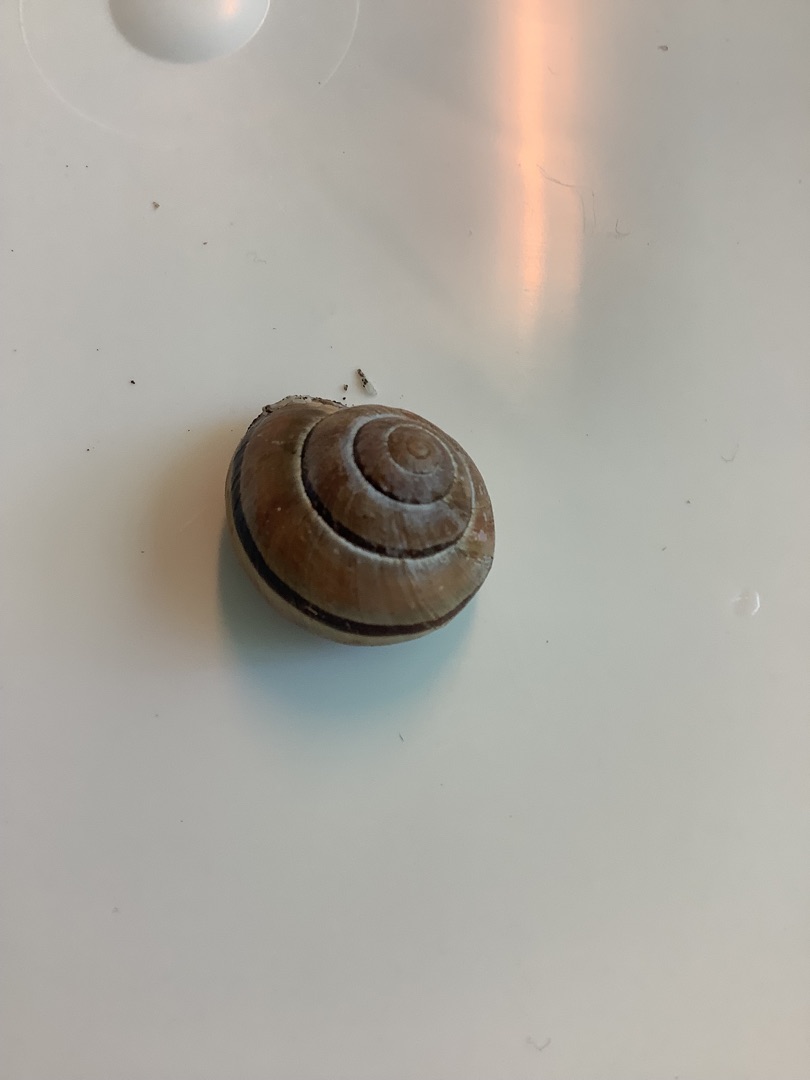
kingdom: Animalia
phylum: Mollusca
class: Gastropoda
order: Stylommatophora
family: Helicidae
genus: Cepaea
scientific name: Cepaea nemoralis
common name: Lundsnegl
